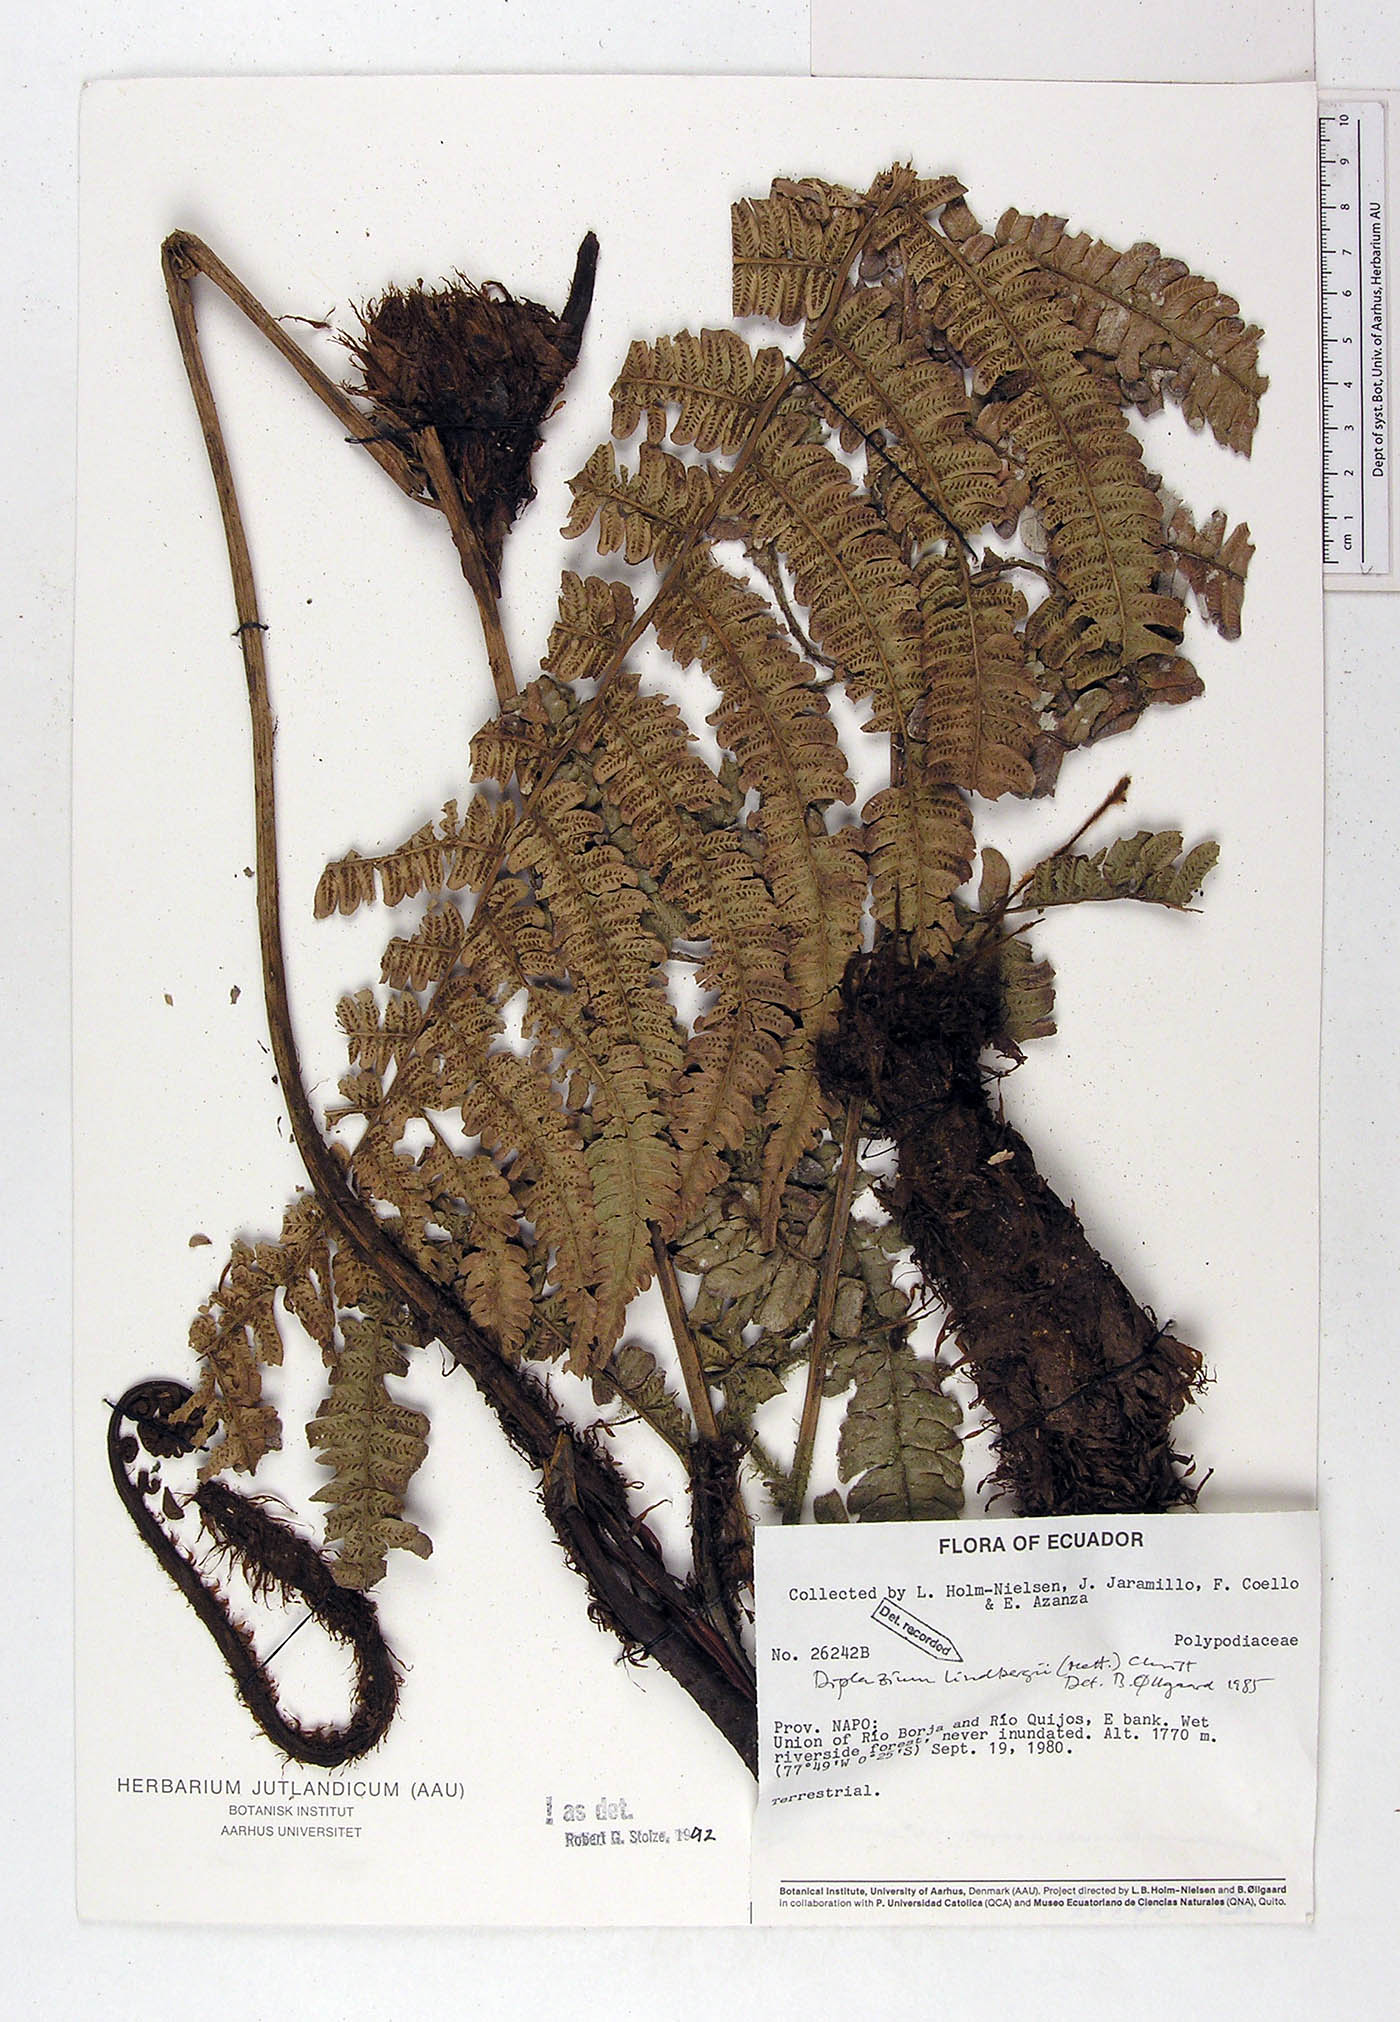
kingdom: Plantae
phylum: Tracheophyta
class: Polypodiopsida
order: Polypodiales
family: Athyriaceae
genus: Diplazium
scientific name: Diplazium lindbergii
